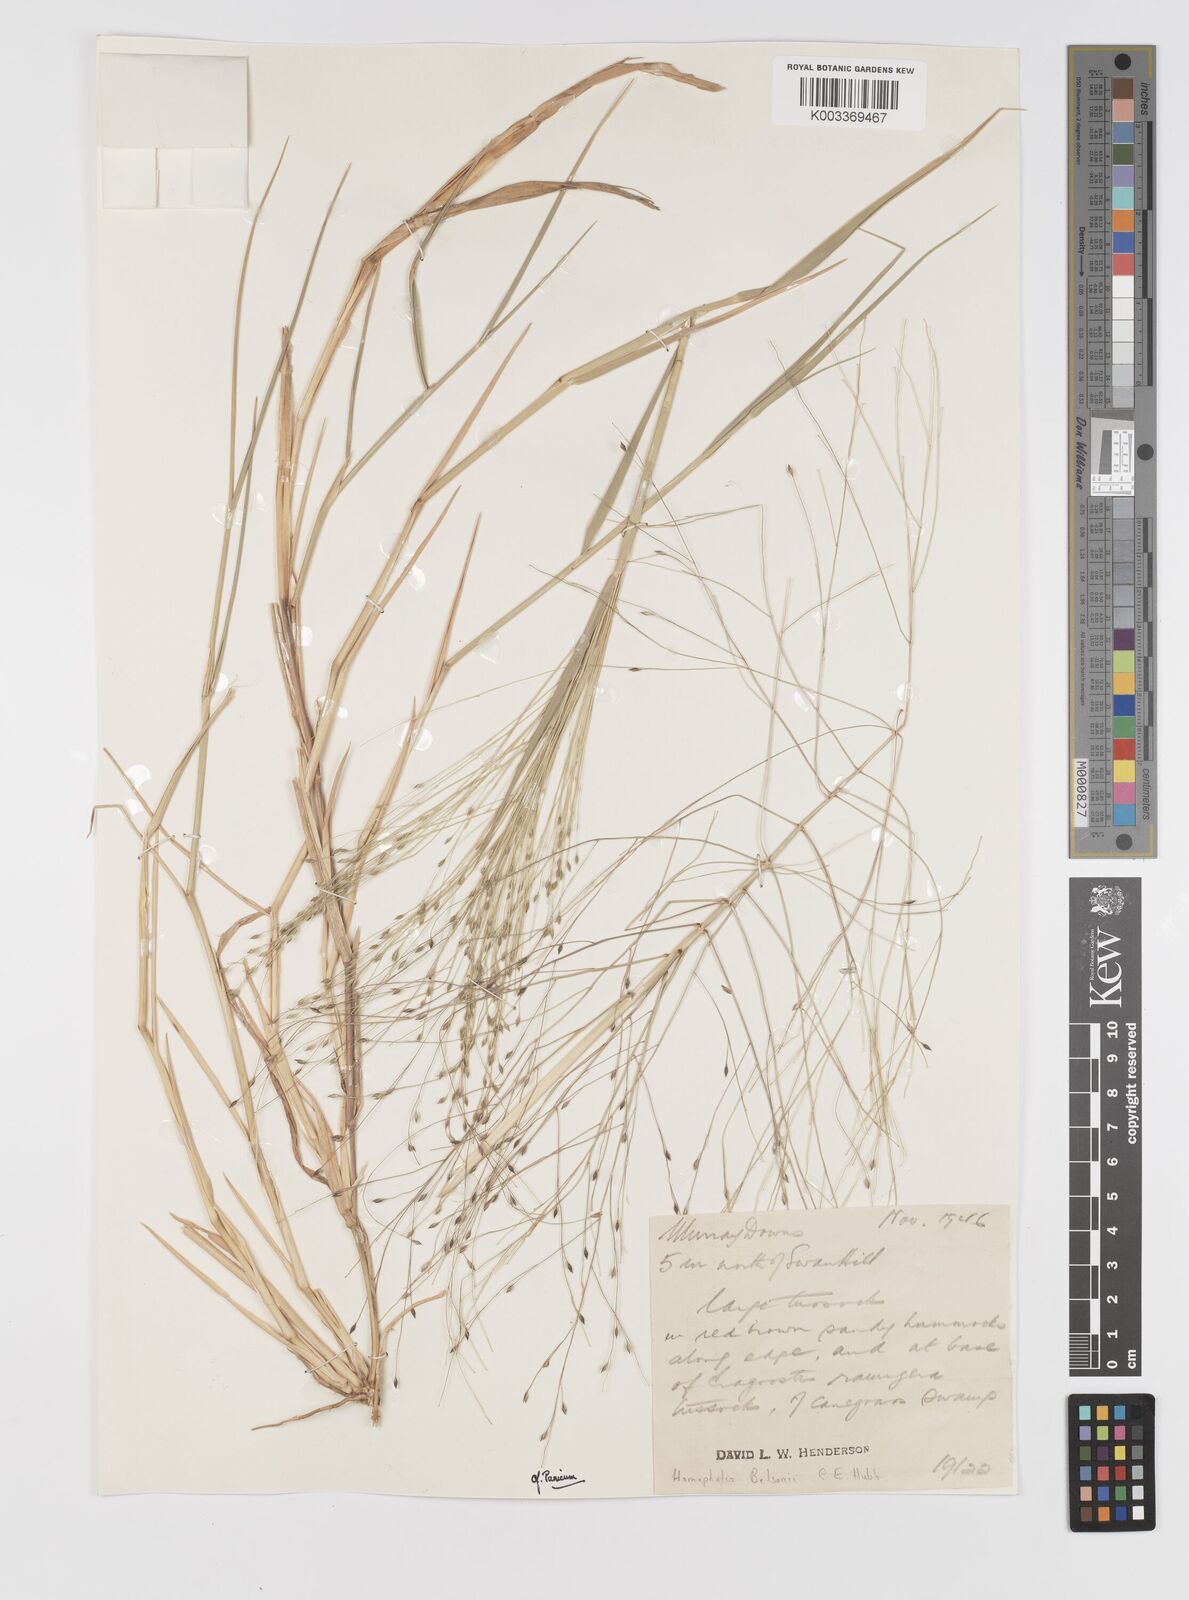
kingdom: Plantae
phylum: Tracheophyta
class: Liliopsida
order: Poales
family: Poaceae
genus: Walwhalleya
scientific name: Walwhalleya proluta
